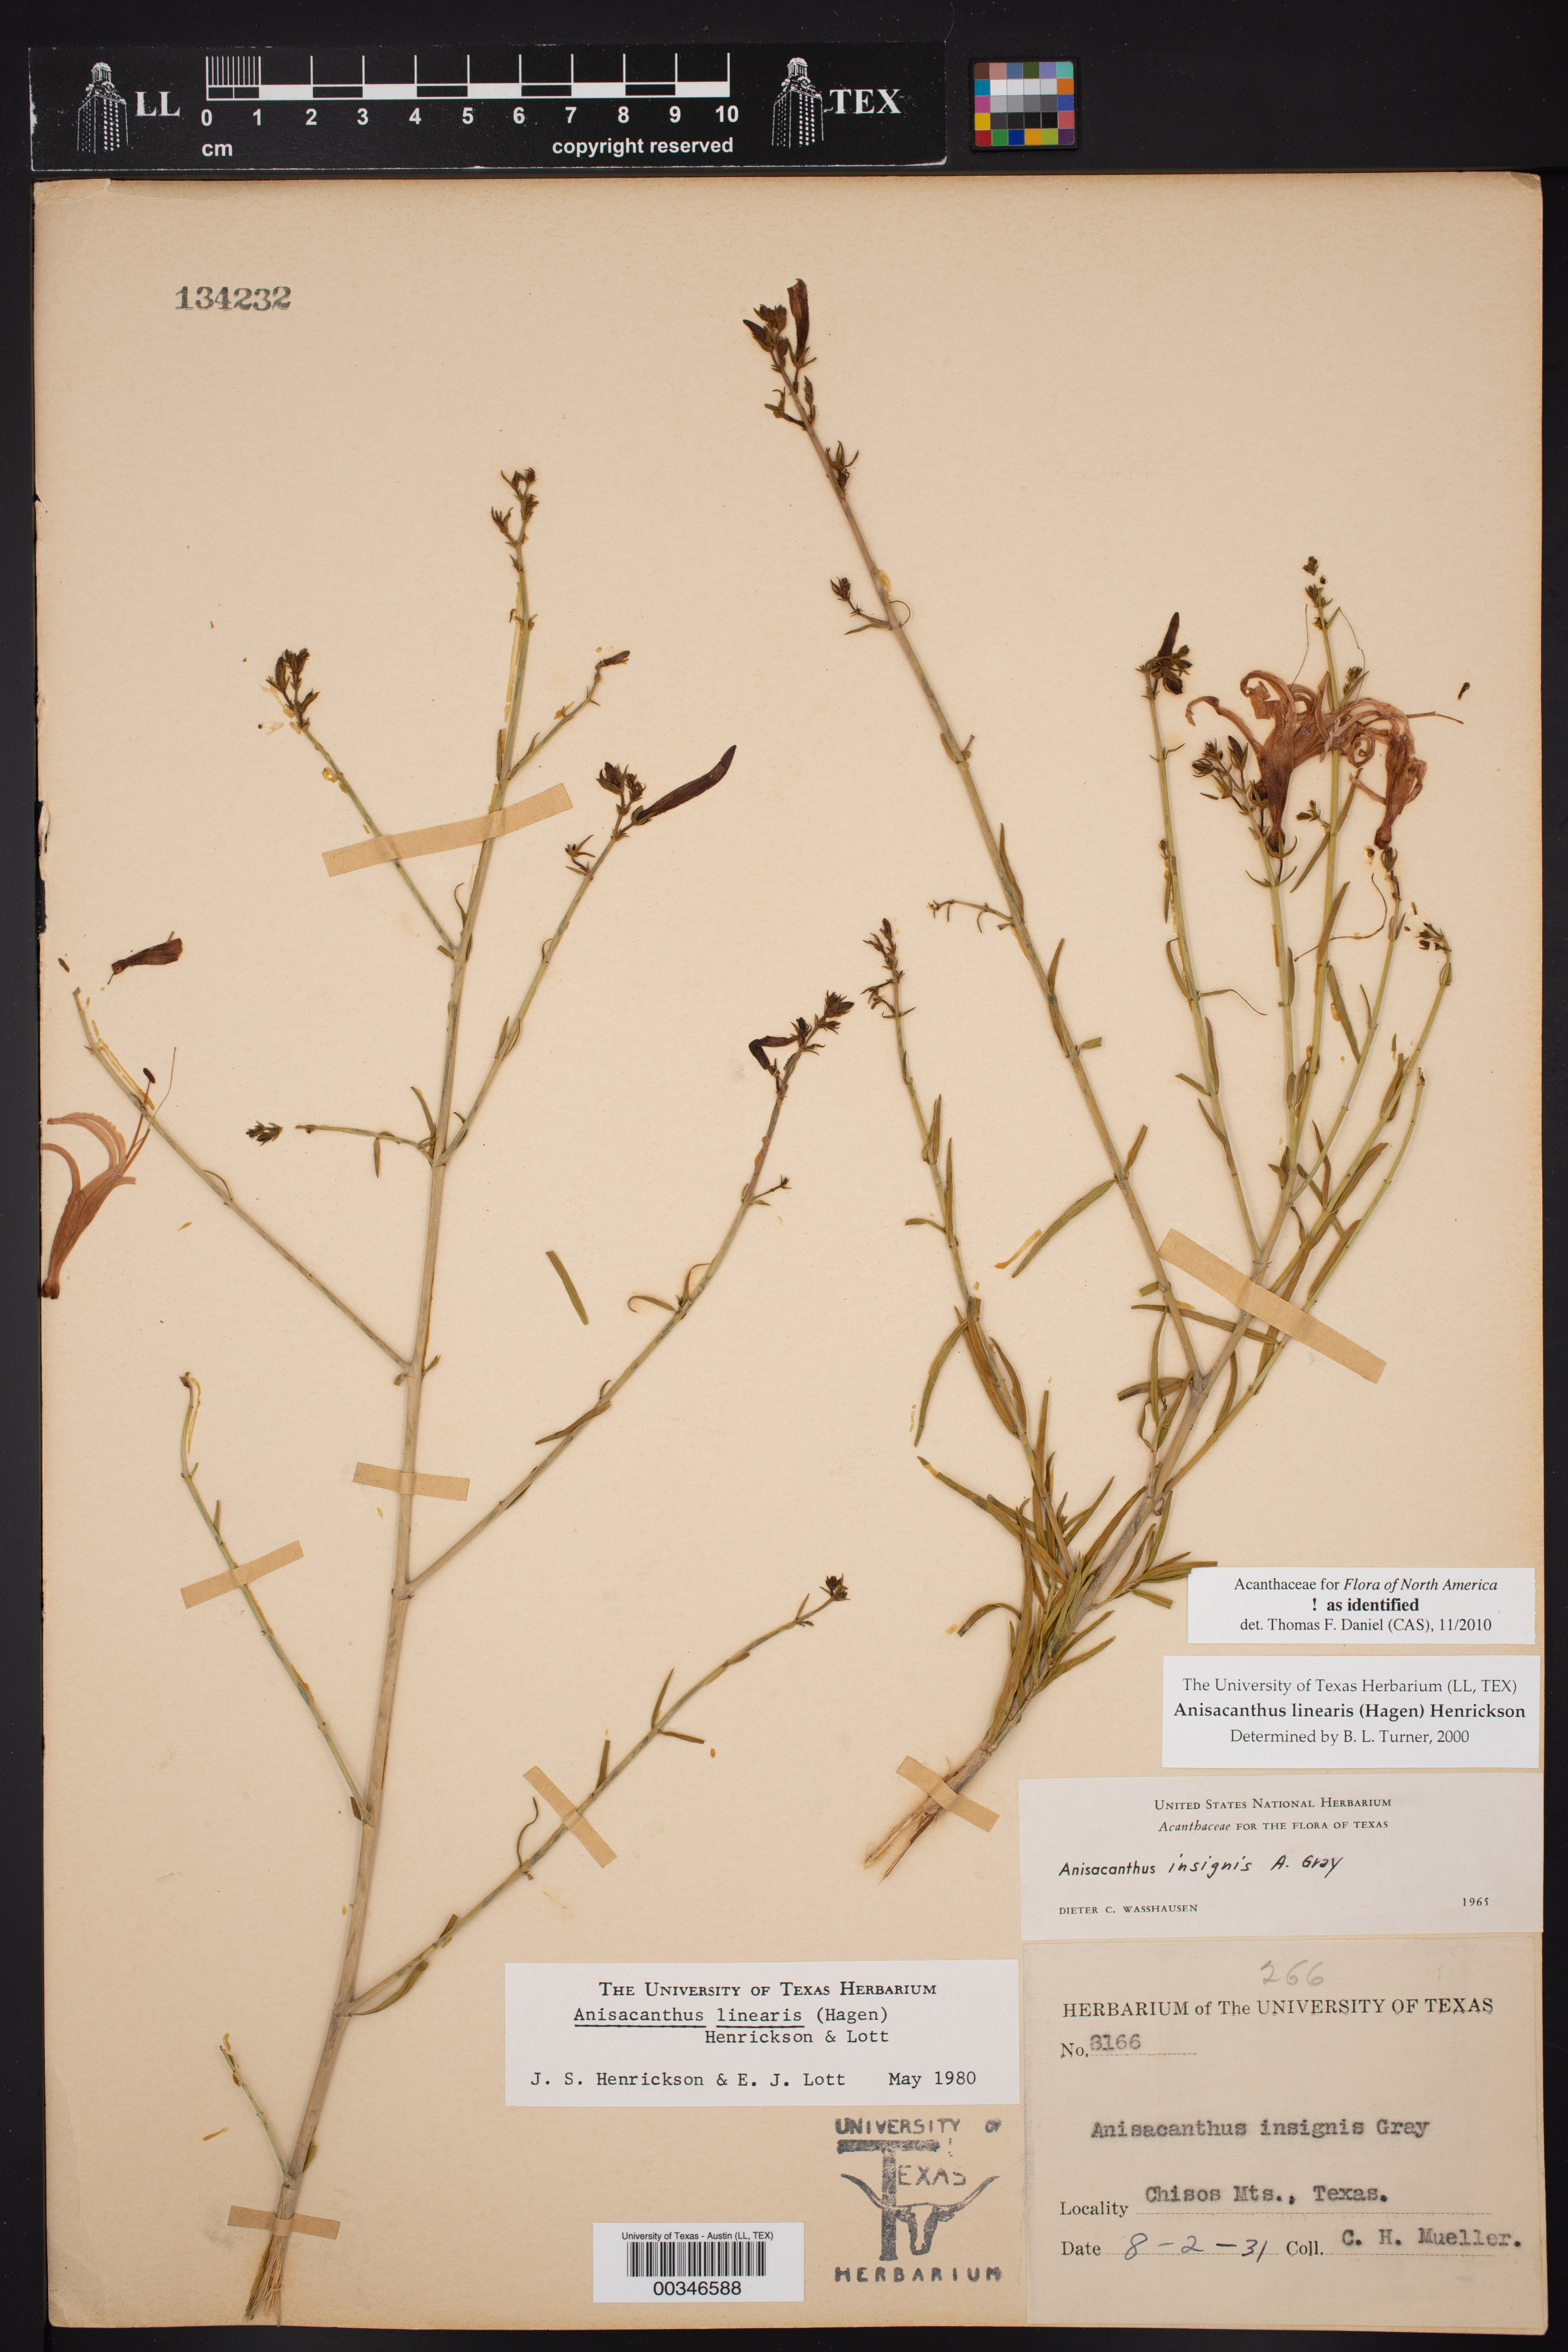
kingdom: Plantae
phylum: Tracheophyta
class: Magnoliopsida
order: Lamiales
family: Acanthaceae
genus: Anisacanthus
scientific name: Anisacanthus linearis
